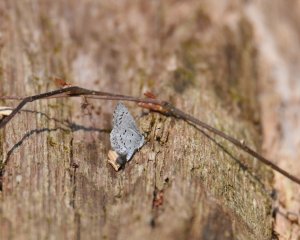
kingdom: Animalia
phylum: Arthropoda
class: Insecta
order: Lepidoptera
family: Lycaenidae
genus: Celastrina
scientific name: Celastrina
